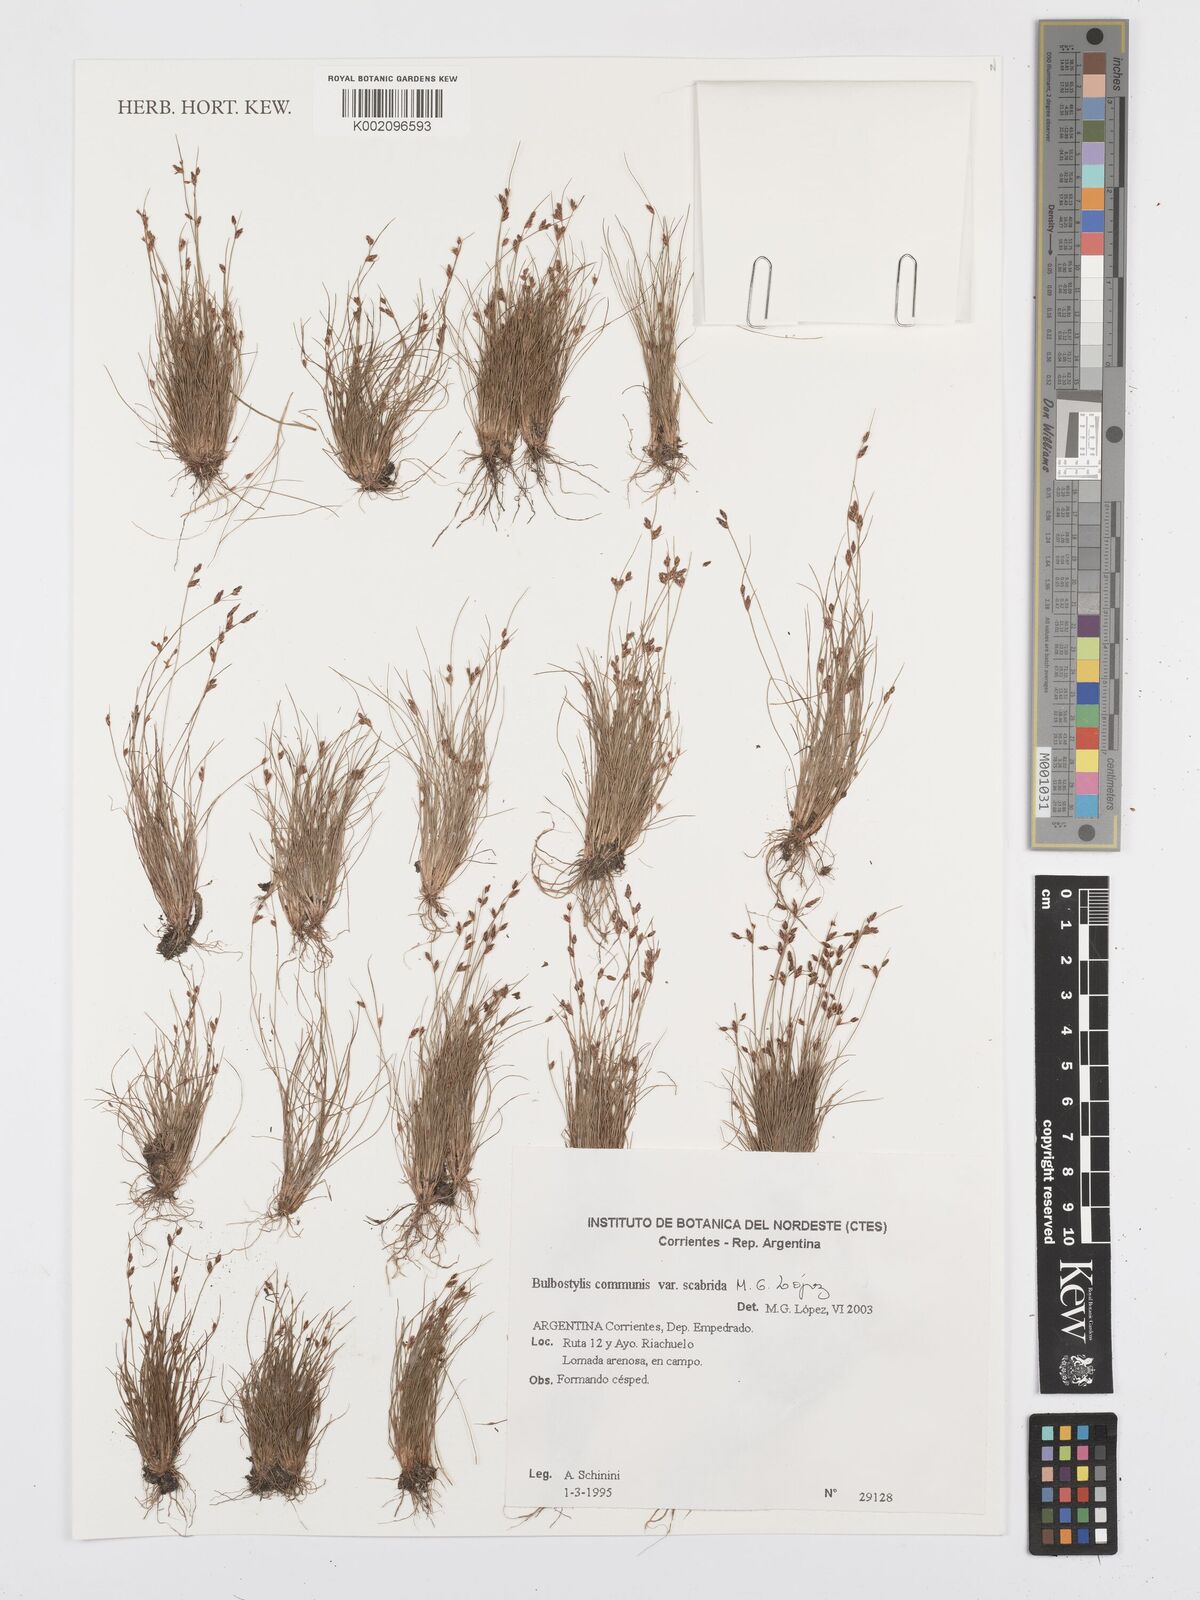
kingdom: Plantae
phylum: Tracheophyta
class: Liliopsida
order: Poales
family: Cyperaceae
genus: Bulbostylis
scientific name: Bulbostylis communis
